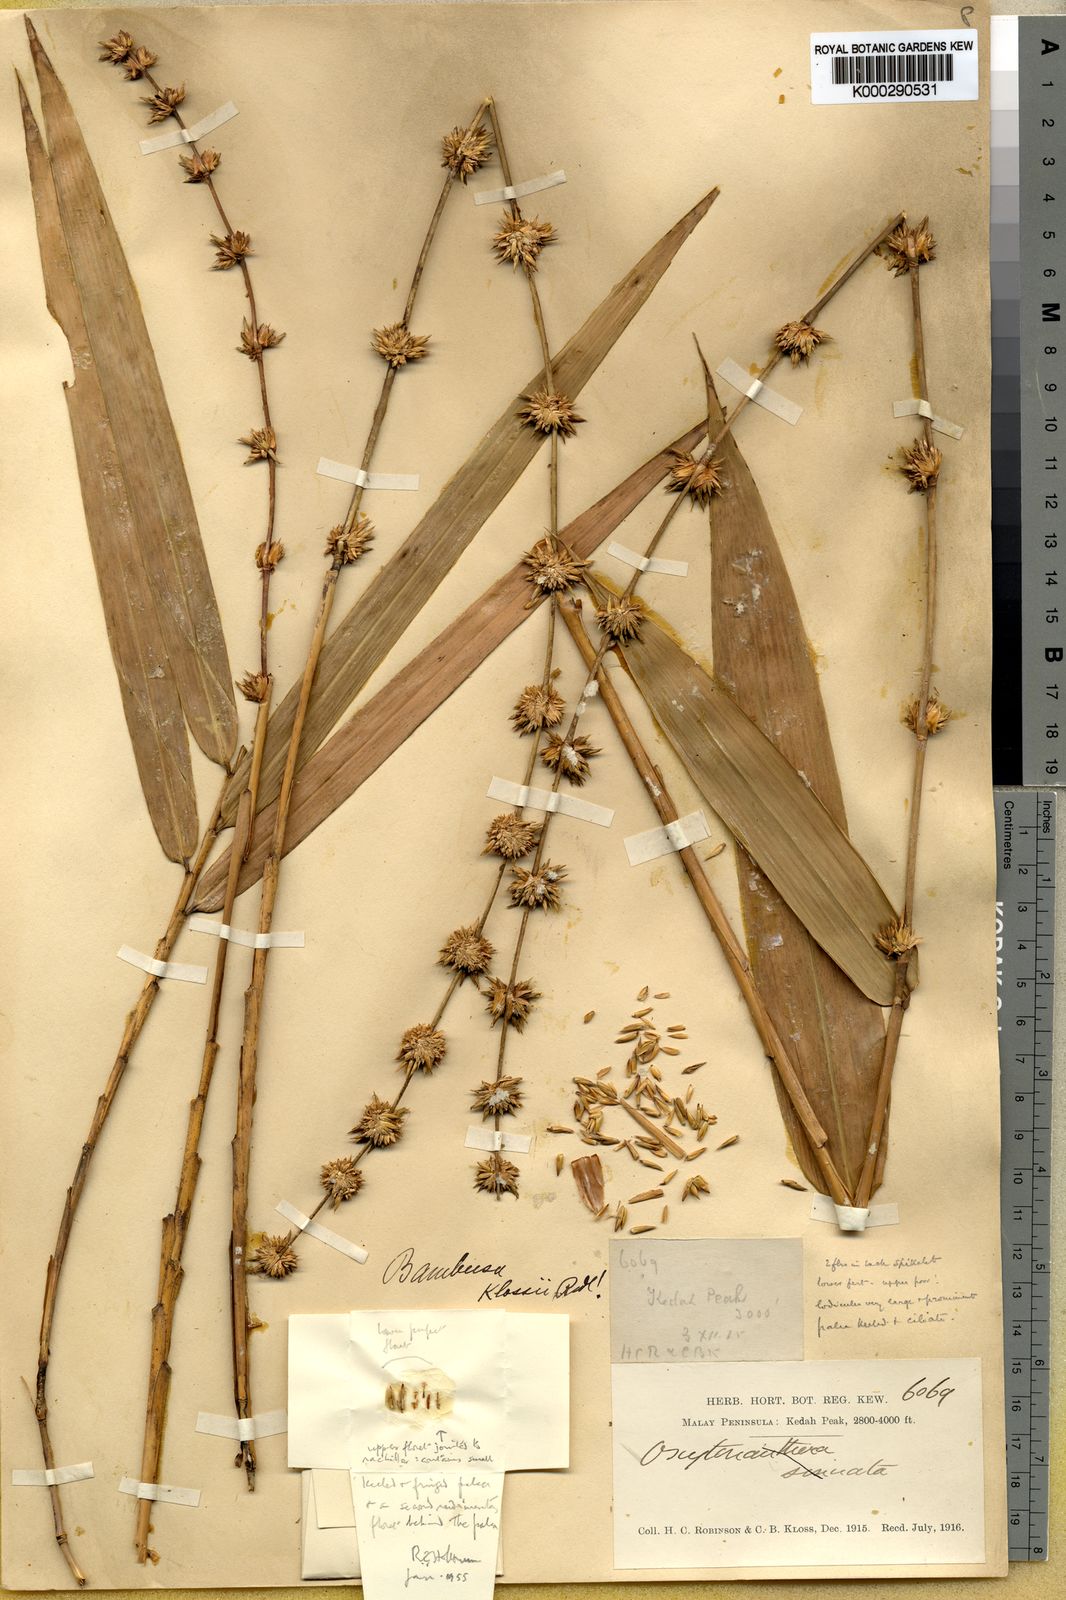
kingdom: Plantae
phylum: Tracheophyta
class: Liliopsida
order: Poales
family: Poaceae
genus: Dendrocalamus
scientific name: Dendrocalamus hirtellus
